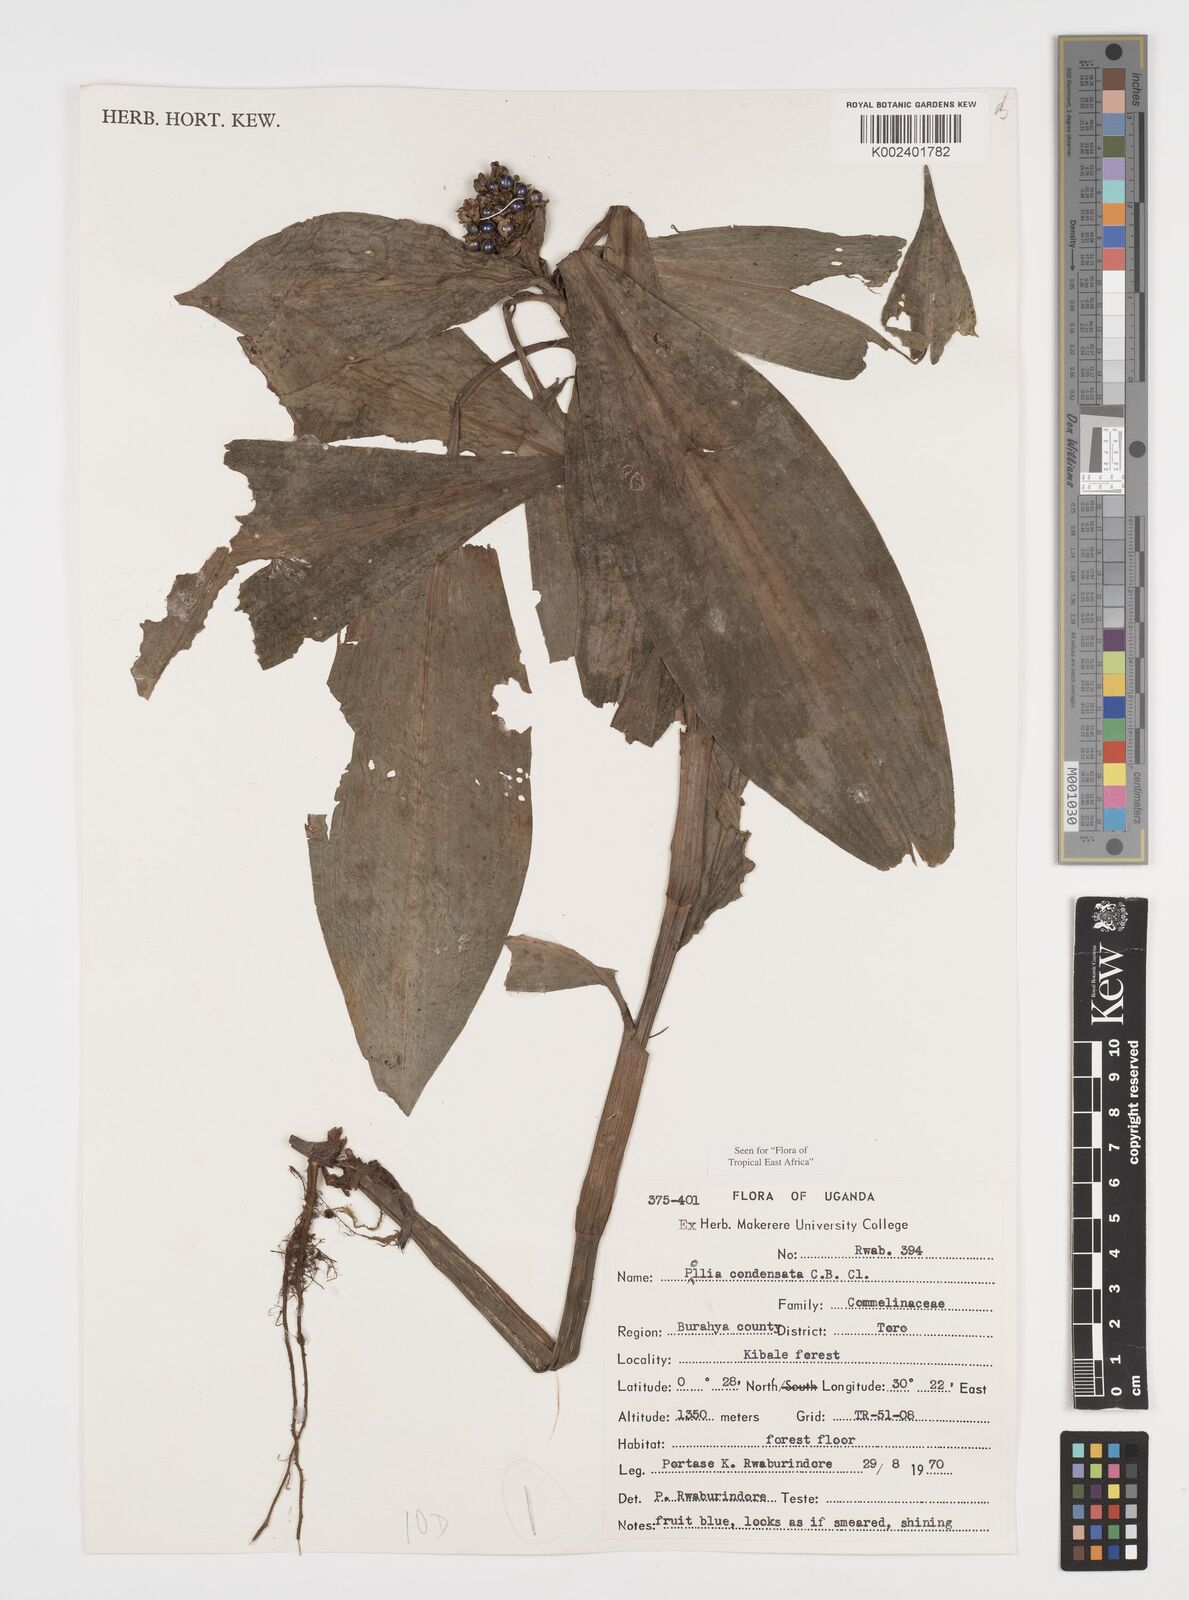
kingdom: Plantae
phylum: Tracheophyta
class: Liliopsida
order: Commelinales
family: Commelinaceae
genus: Pollia
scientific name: Pollia condensata
